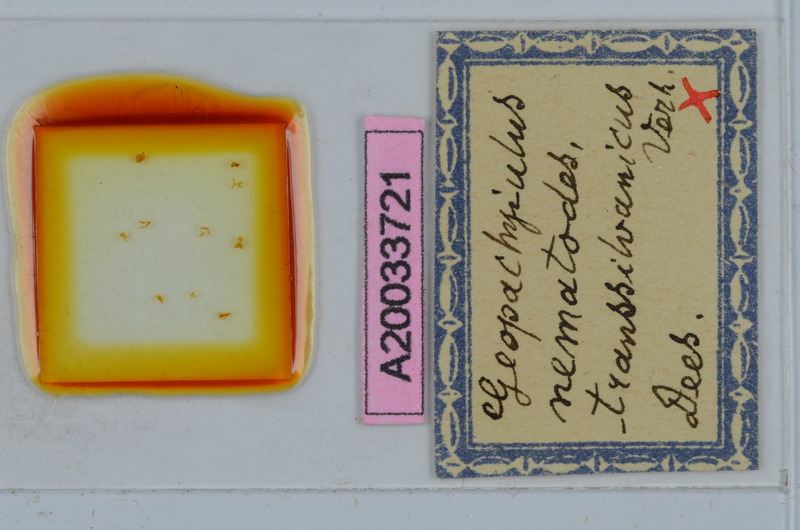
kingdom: Animalia
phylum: Arthropoda
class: Diplopoda
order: Julida
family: Julidae
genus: Geopachyiulus
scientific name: Geopachyiulus nematodes
